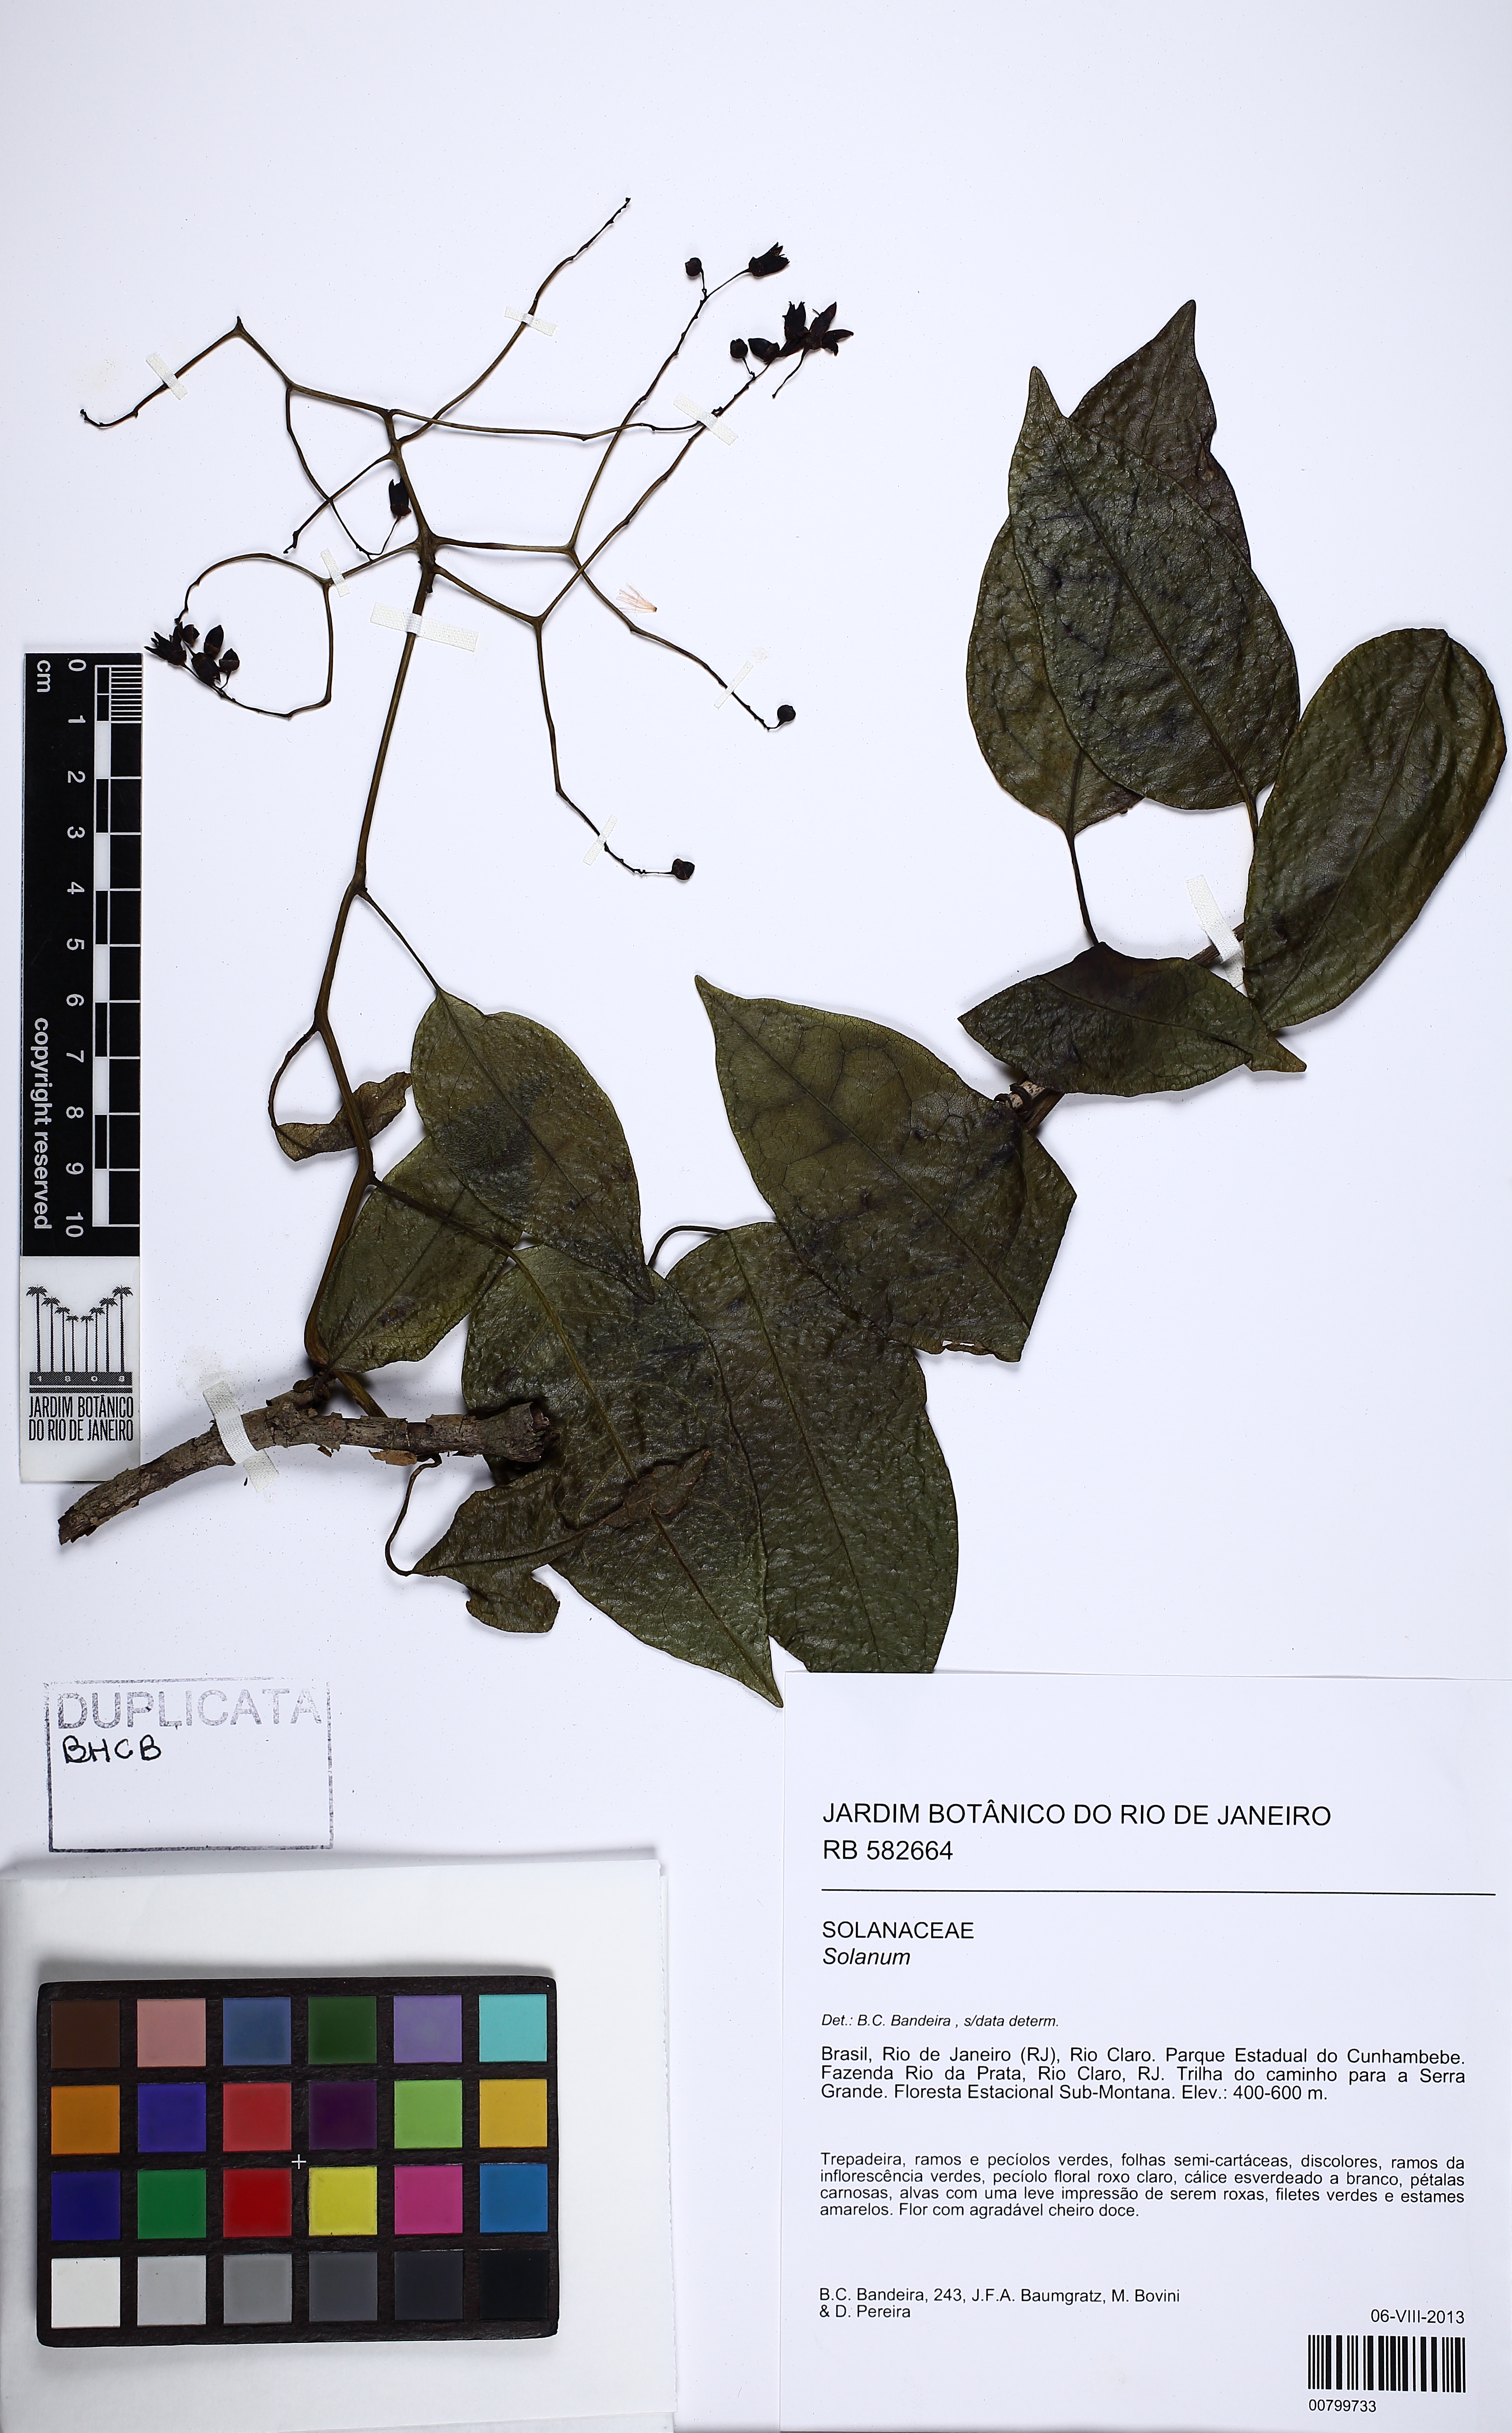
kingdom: Plantae
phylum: Tracheophyta
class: Magnoliopsida
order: Solanales
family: Solanaceae
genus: Solanum
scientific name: Solanum
